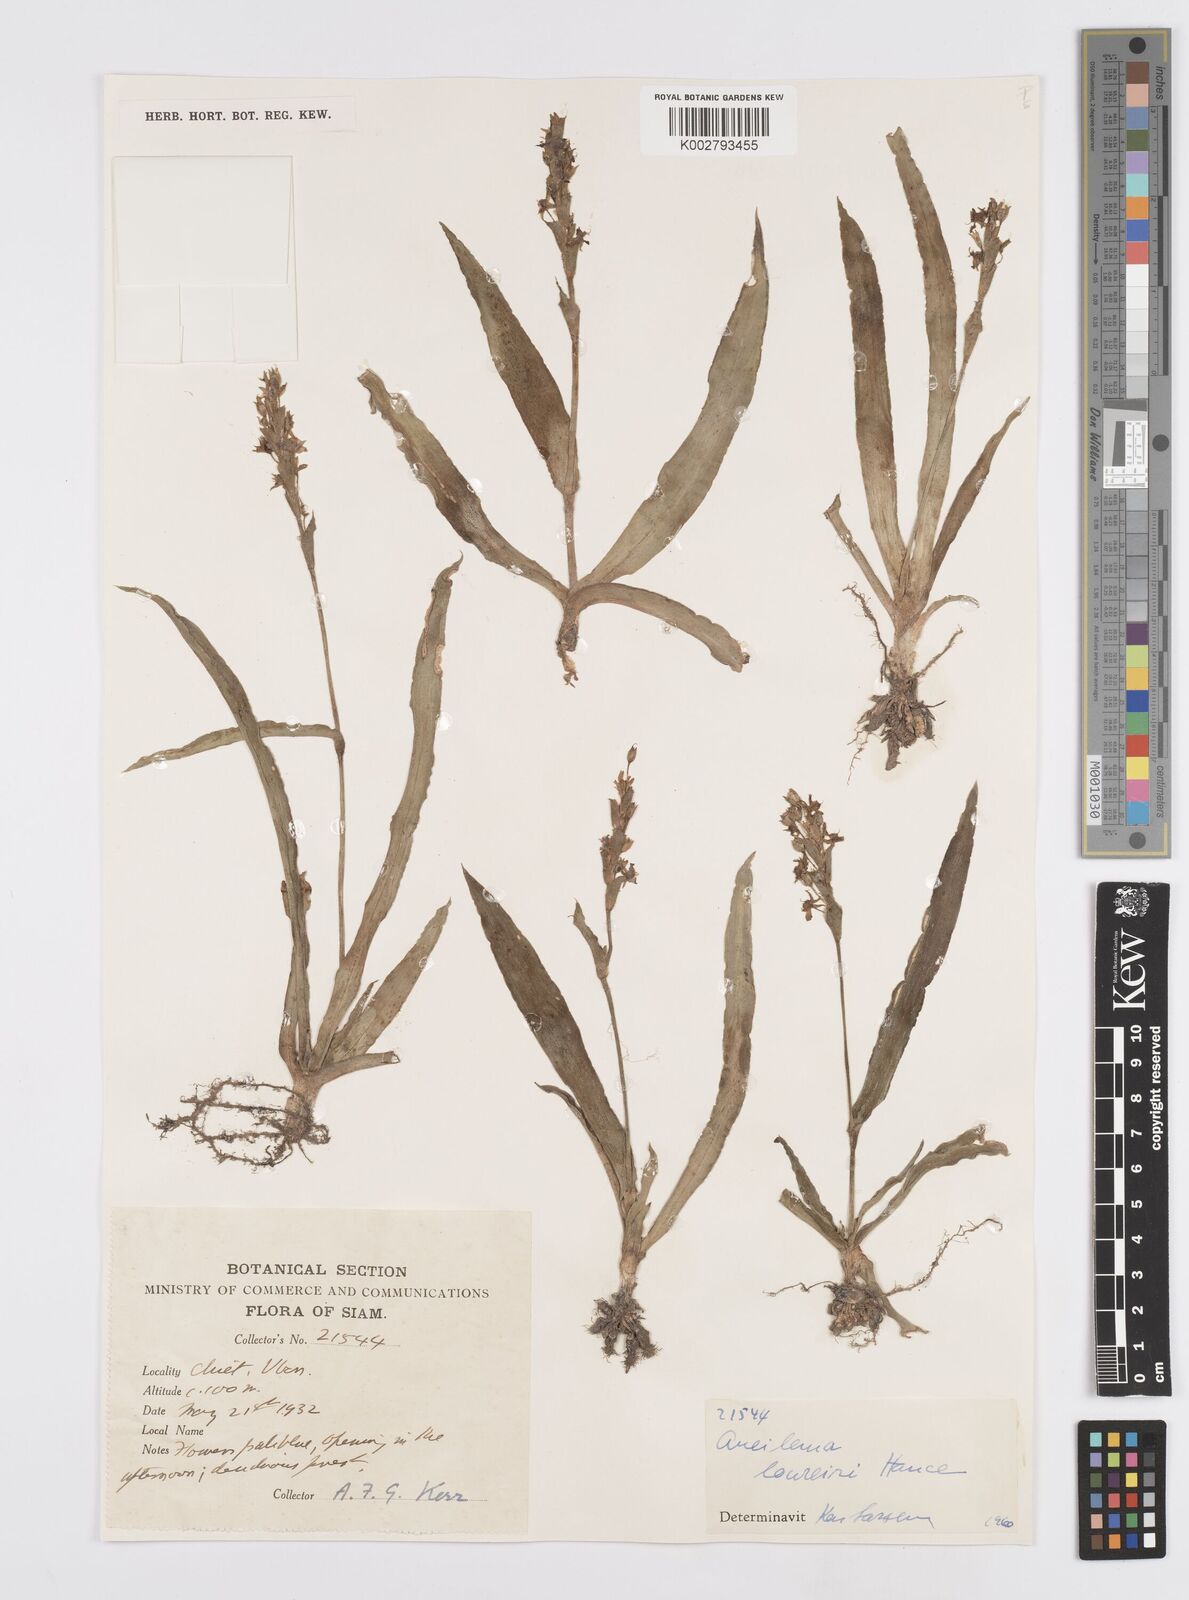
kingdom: Plantae
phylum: Tracheophyta
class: Liliopsida
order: Commelinales
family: Commelinaceae
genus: Murdannia
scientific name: Murdannia edulis
